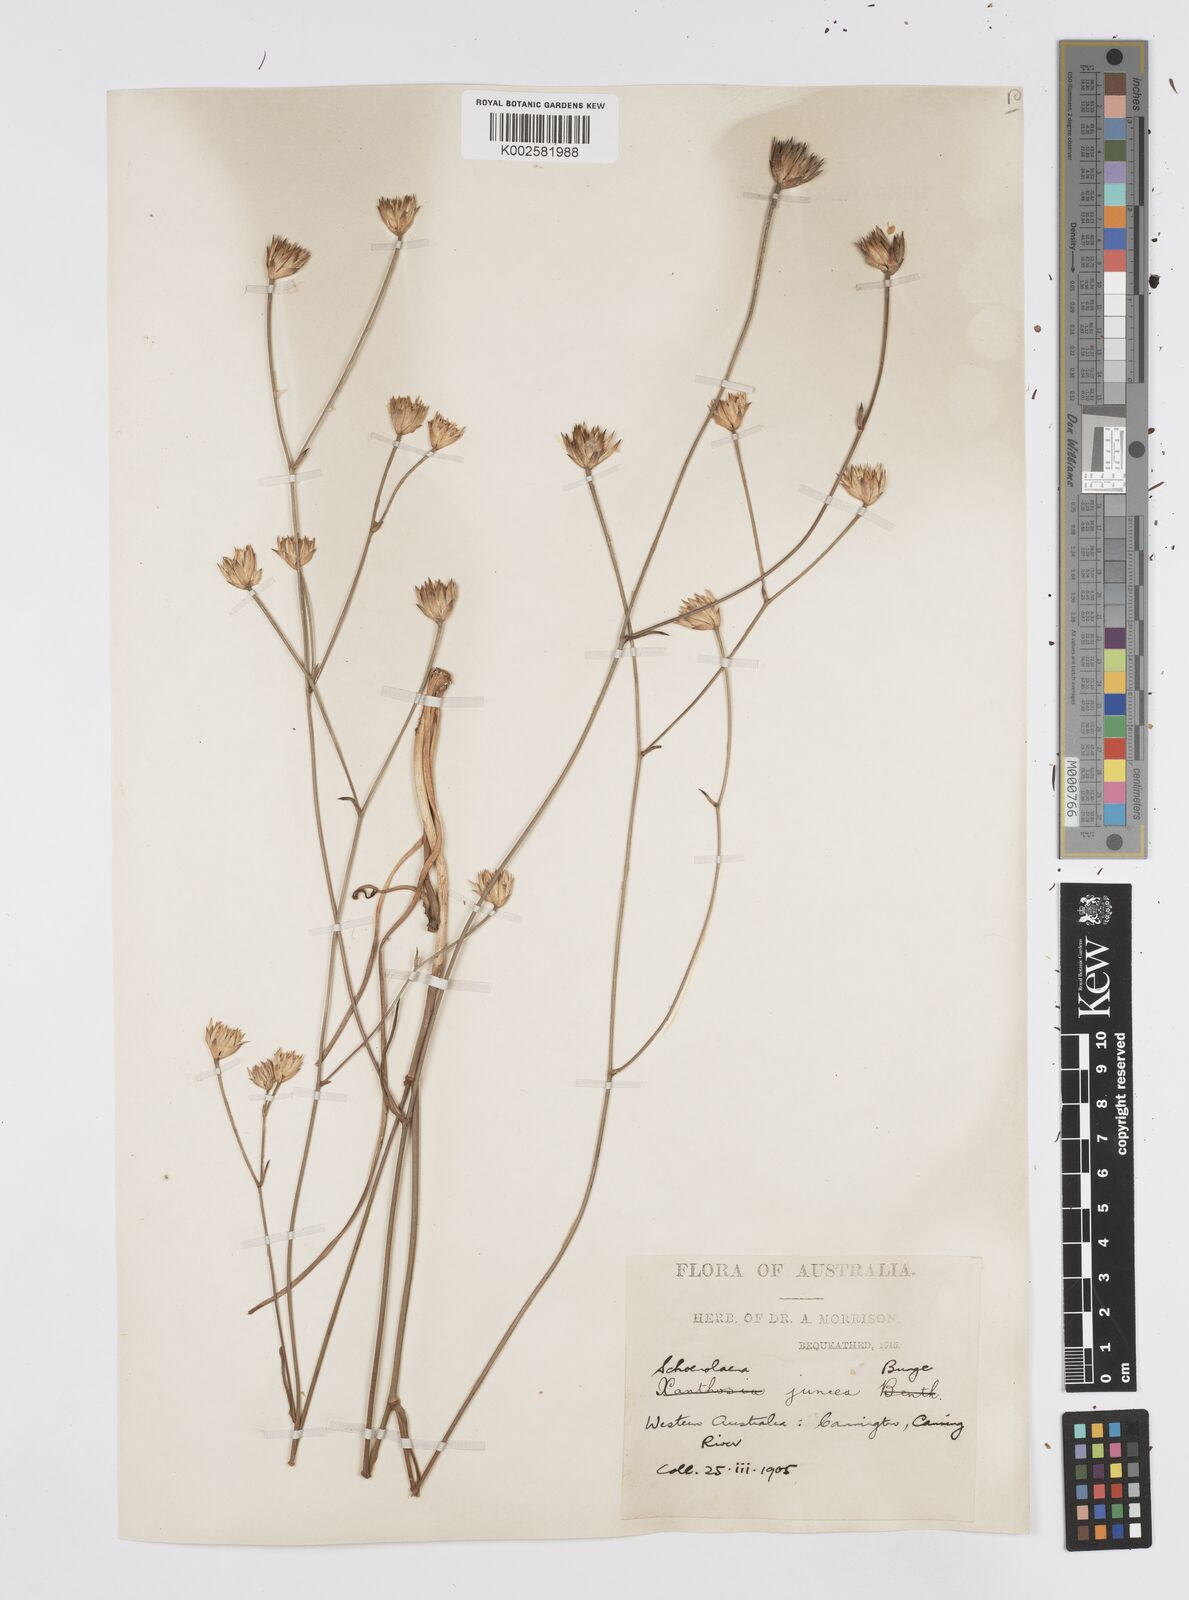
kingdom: Plantae
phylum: Tracheophyta
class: Magnoliopsida
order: Apiales
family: Apiaceae
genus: Schoenolaena
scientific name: Schoenolaena juncea
